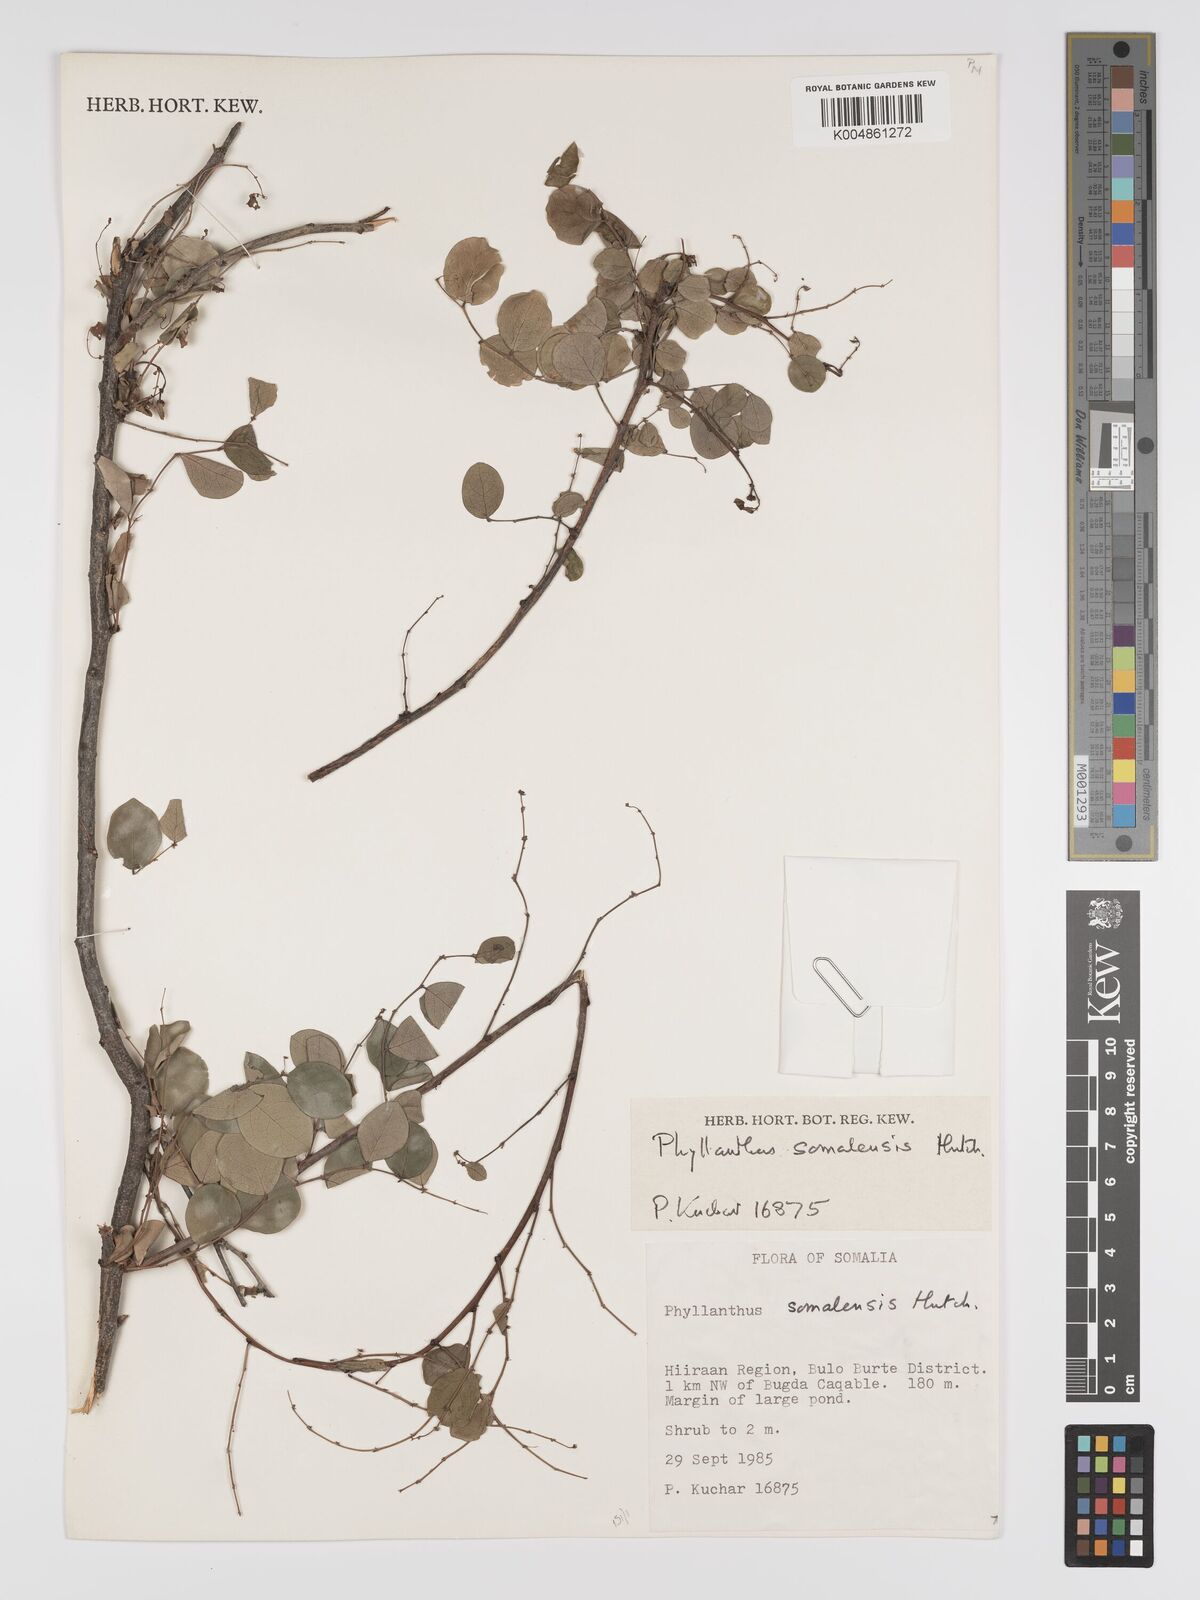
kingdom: Plantae
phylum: Tracheophyta
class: Magnoliopsida
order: Malpighiales
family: Phyllanthaceae
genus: Phyllanthus
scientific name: Phyllanthus somalensis
